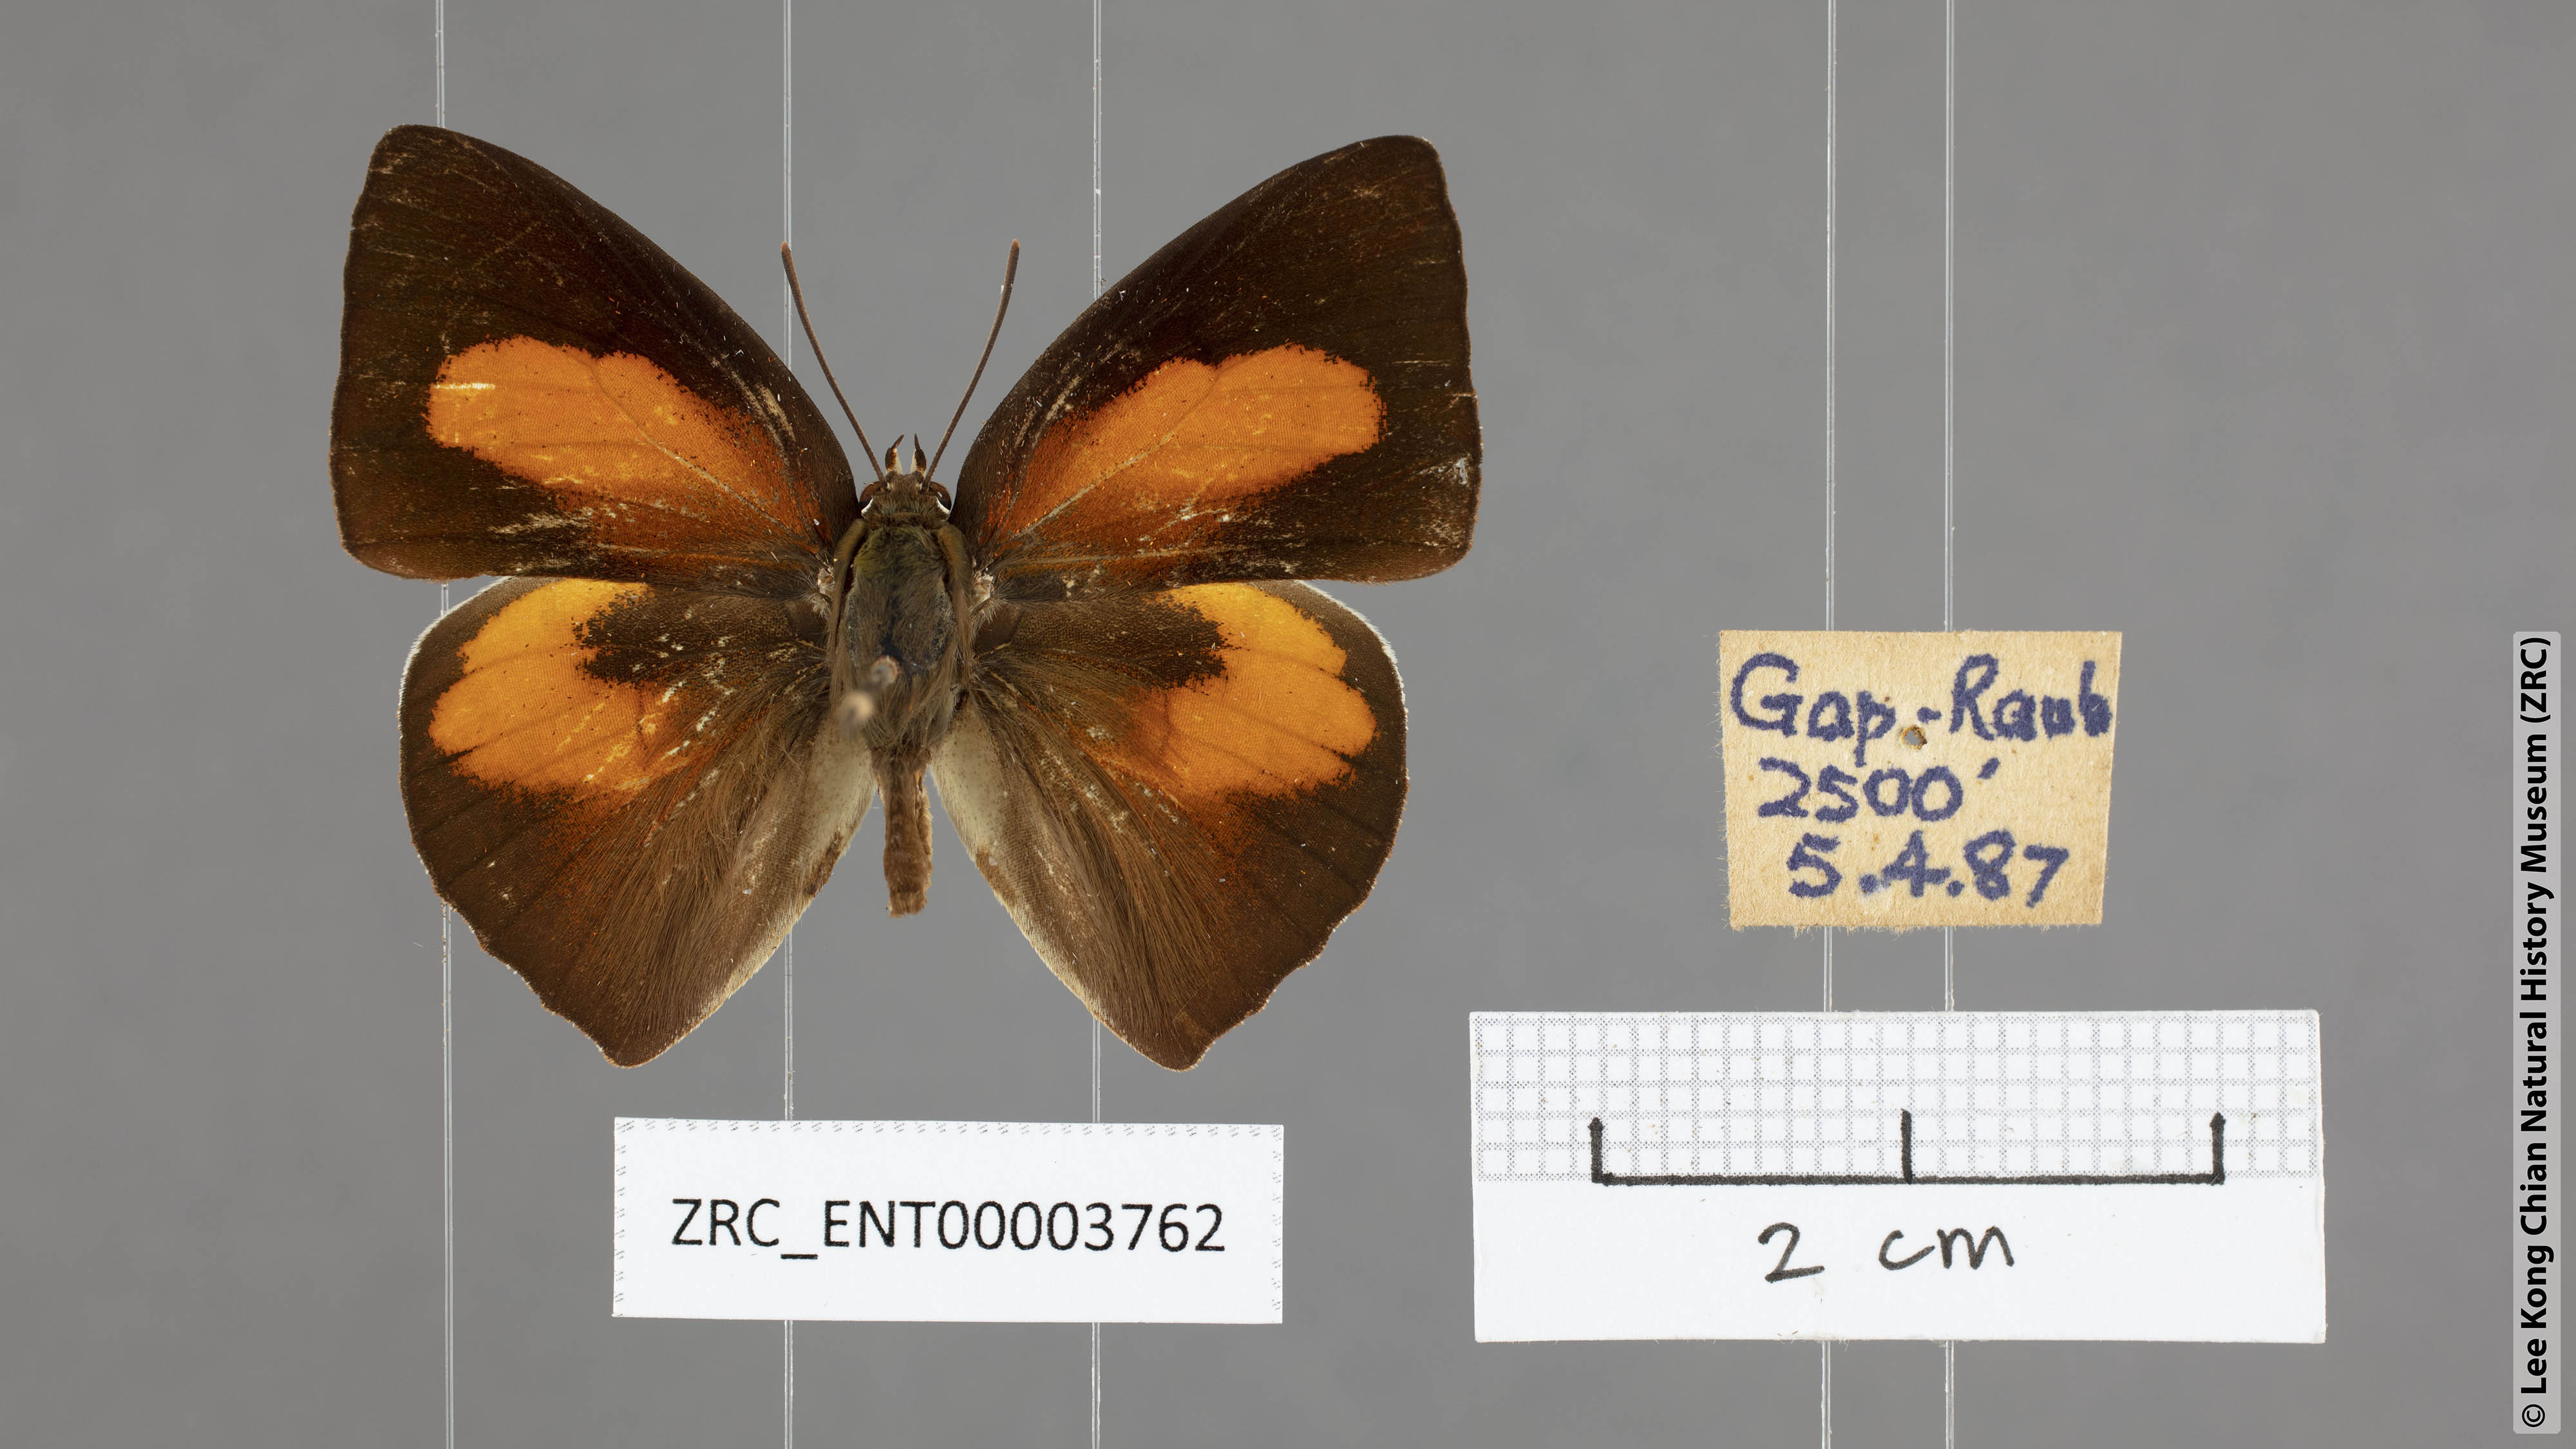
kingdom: Animalia
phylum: Arthropoda
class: Insecta
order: Lepidoptera
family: Lycaenidae
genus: Curetis
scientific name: Curetis sperthis
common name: Rounded sunbeam
